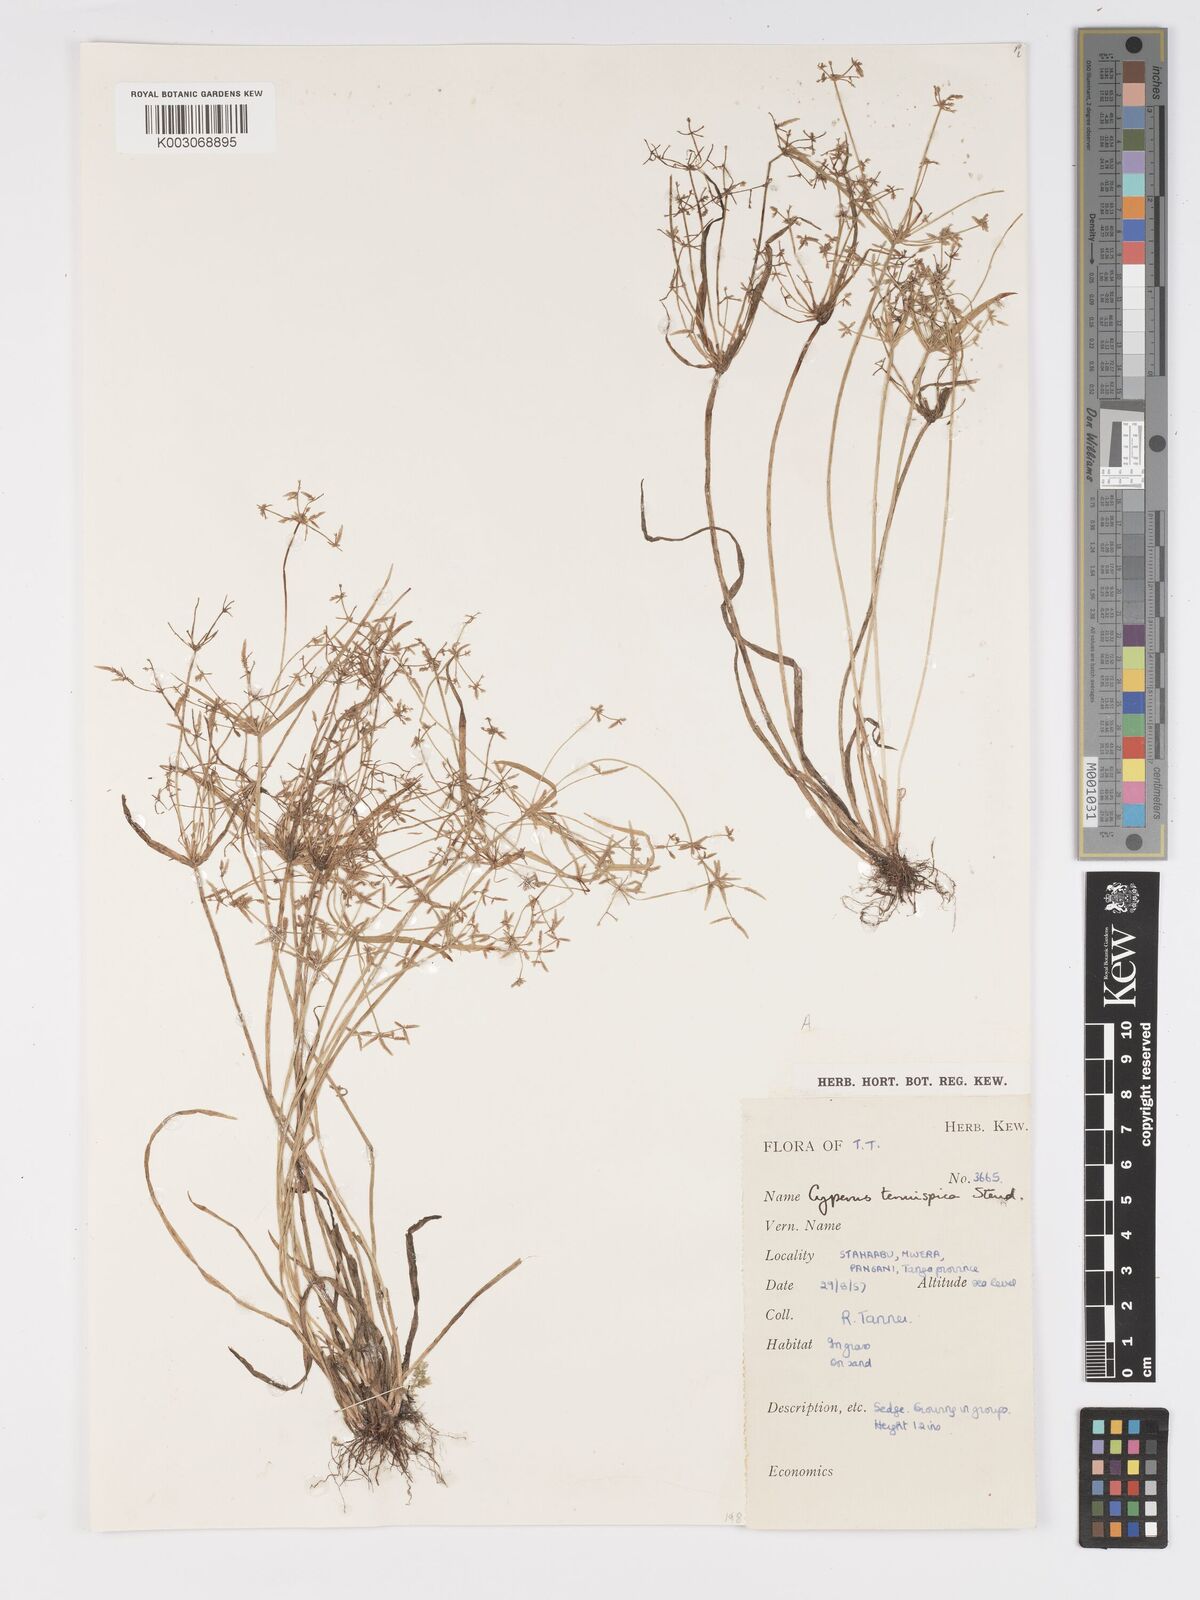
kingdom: Plantae
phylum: Tracheophyta
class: Liliopsida
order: Poales
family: Cyperaceae
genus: Cyperus
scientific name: Cyperus
